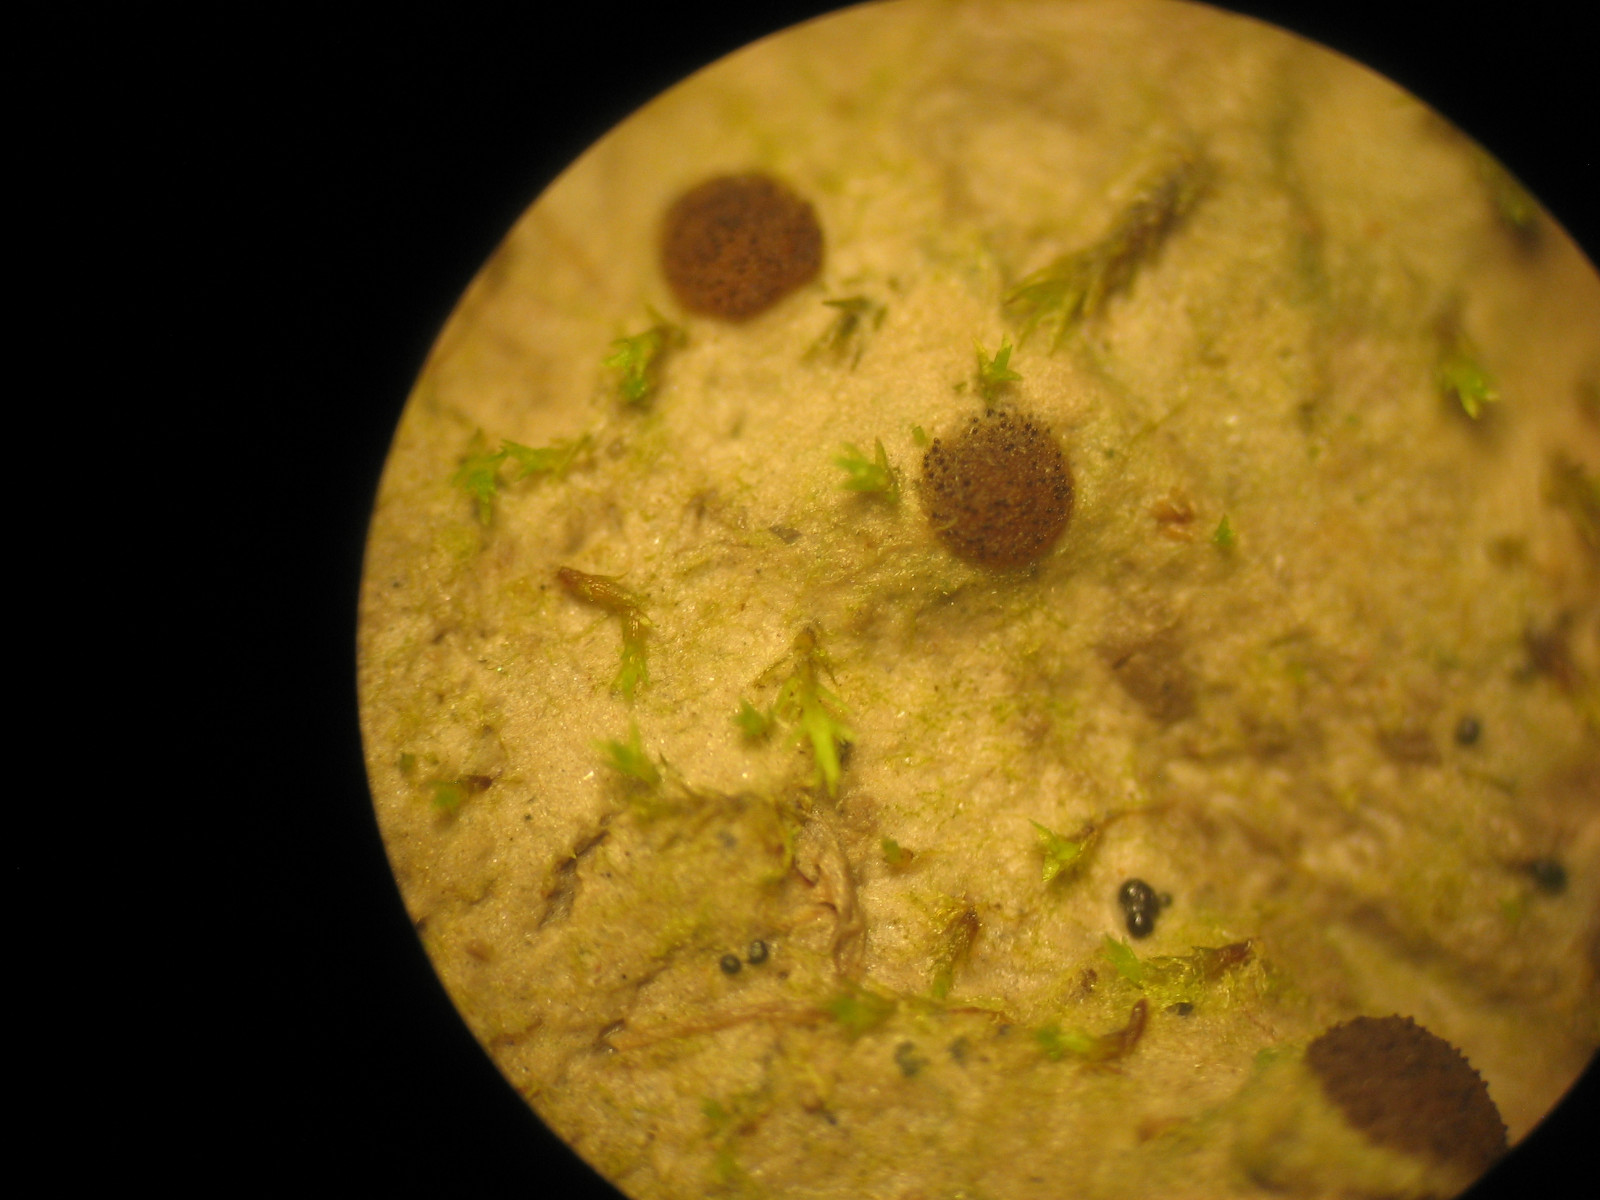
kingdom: Fungi
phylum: Ascomycota
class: Pezizomycetes
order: Pezizales
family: Ascobolaceae
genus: Ascobolus
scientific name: Ascobolus
